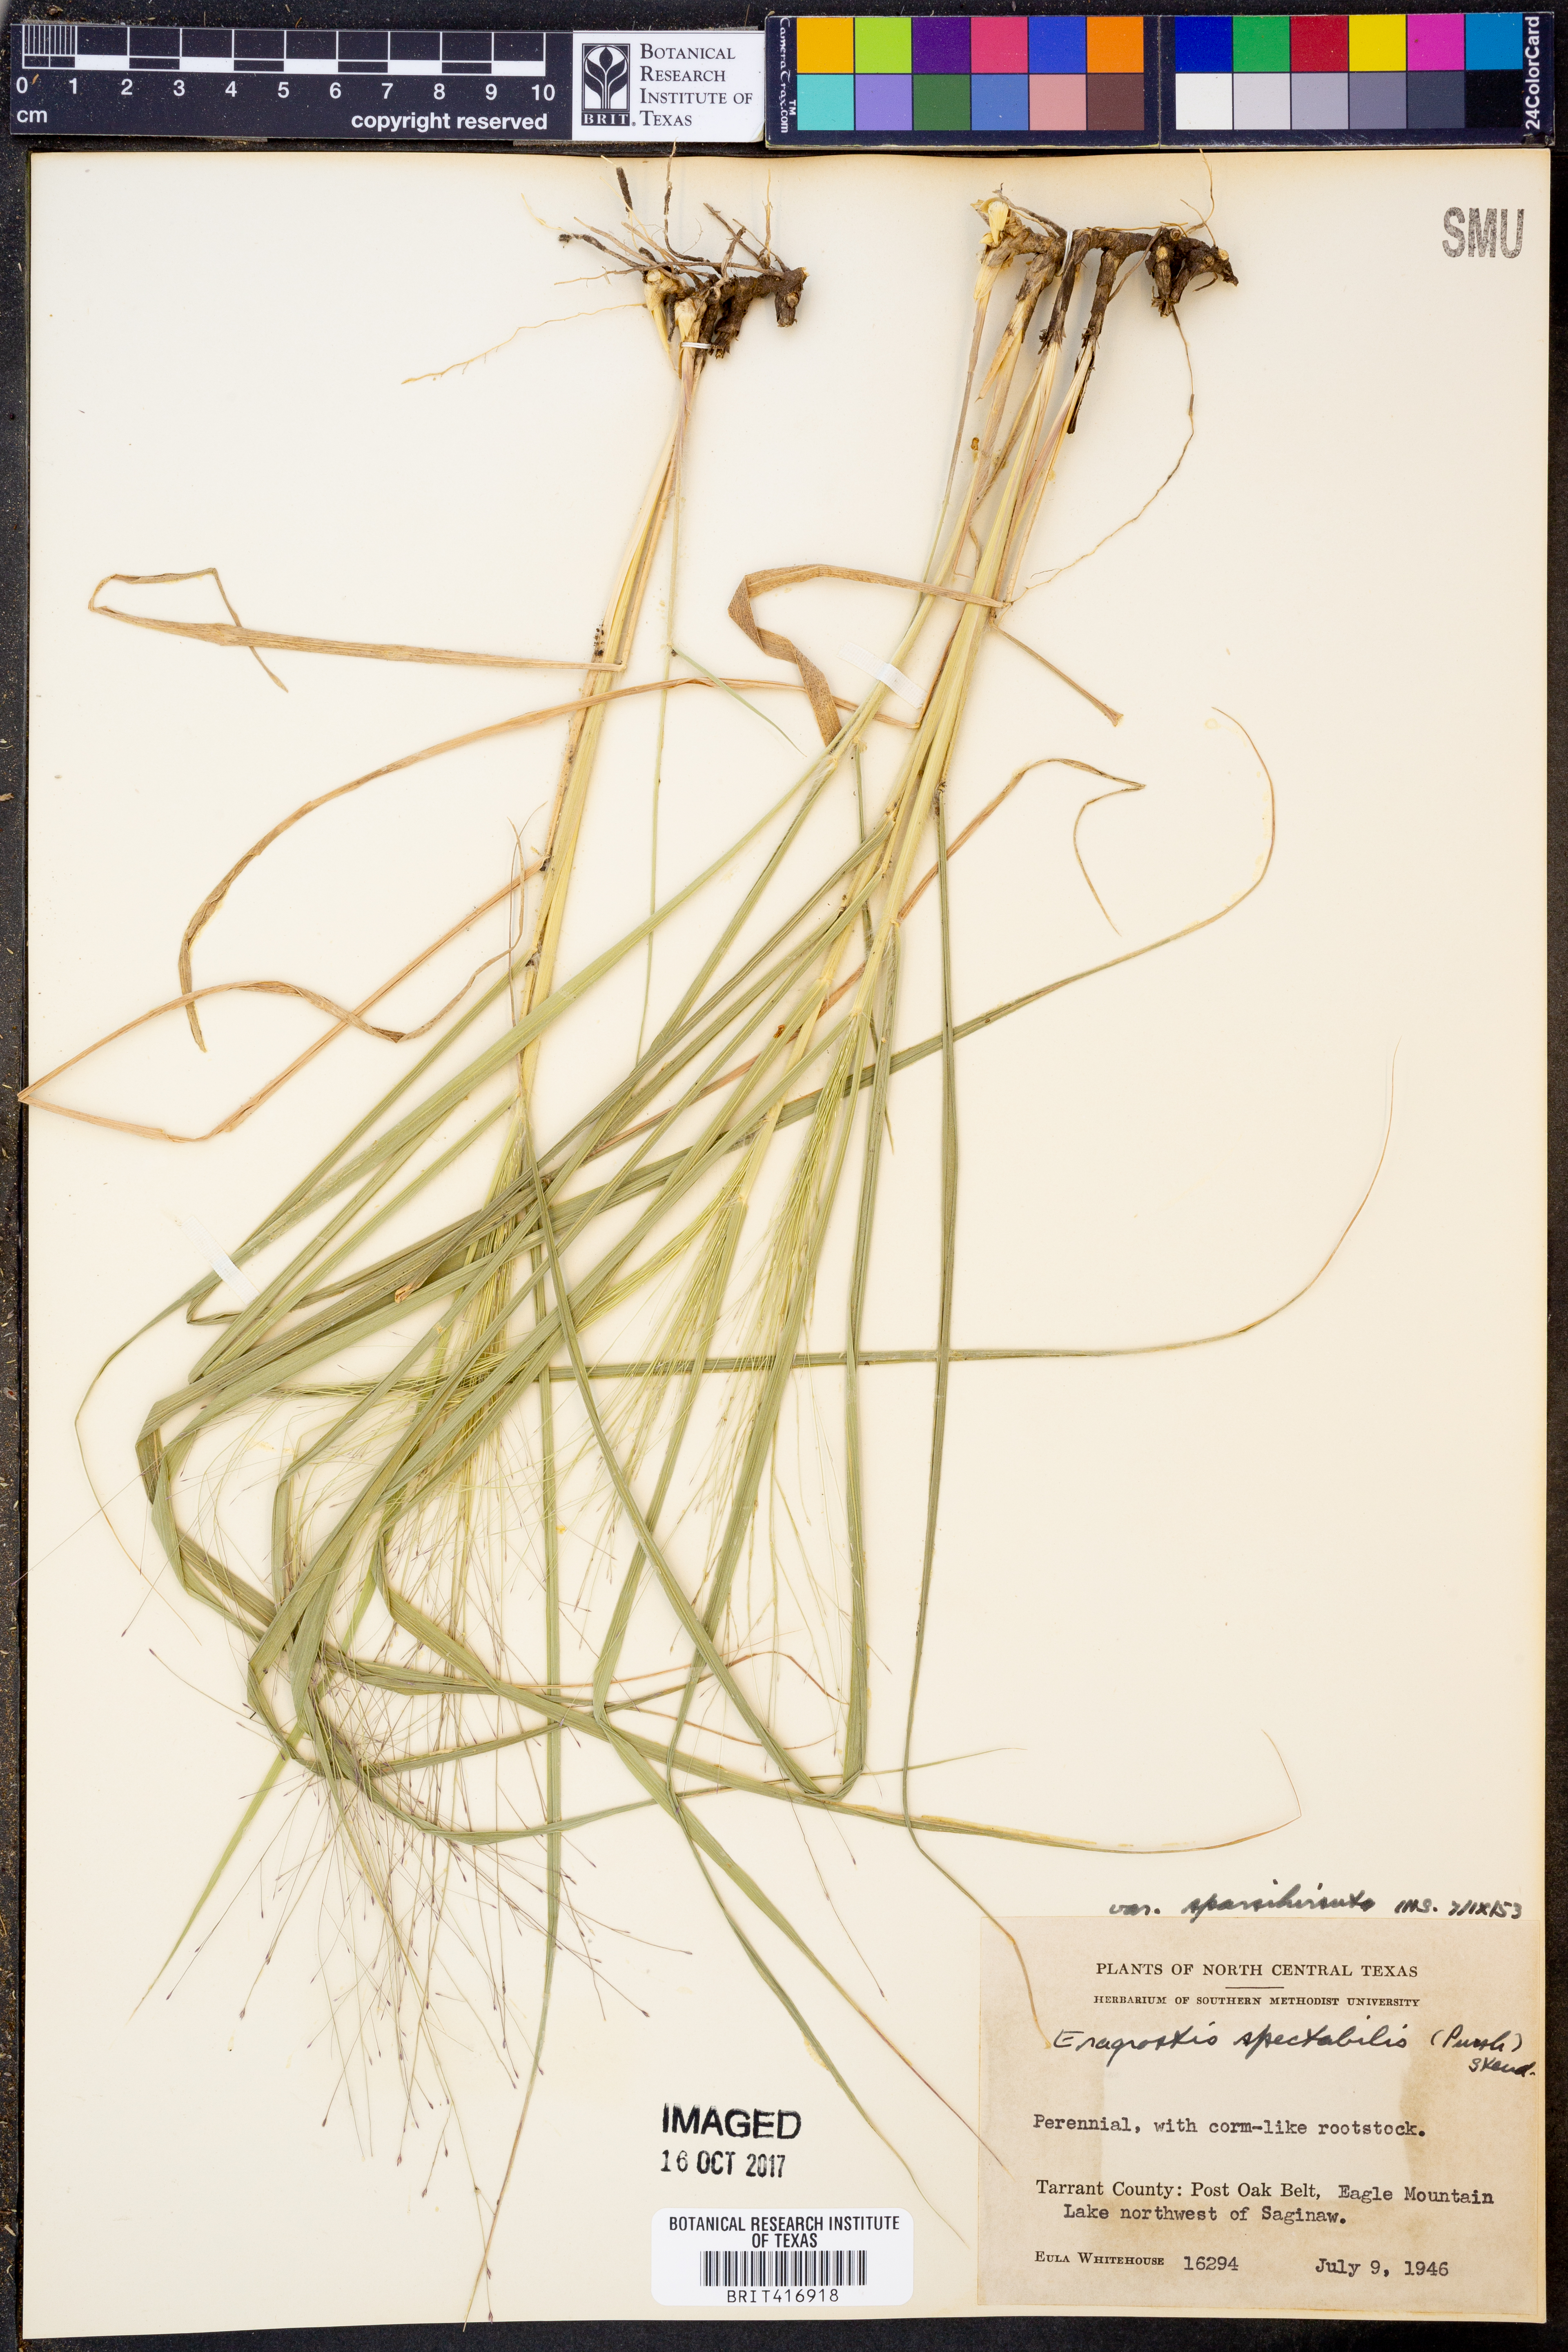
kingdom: Plantae
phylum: Tracheophyta
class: Liliopsida
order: Poales
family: Poaceae
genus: Eragrostis
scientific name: Eragrostis spectabilis
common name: Petticoat-climber
